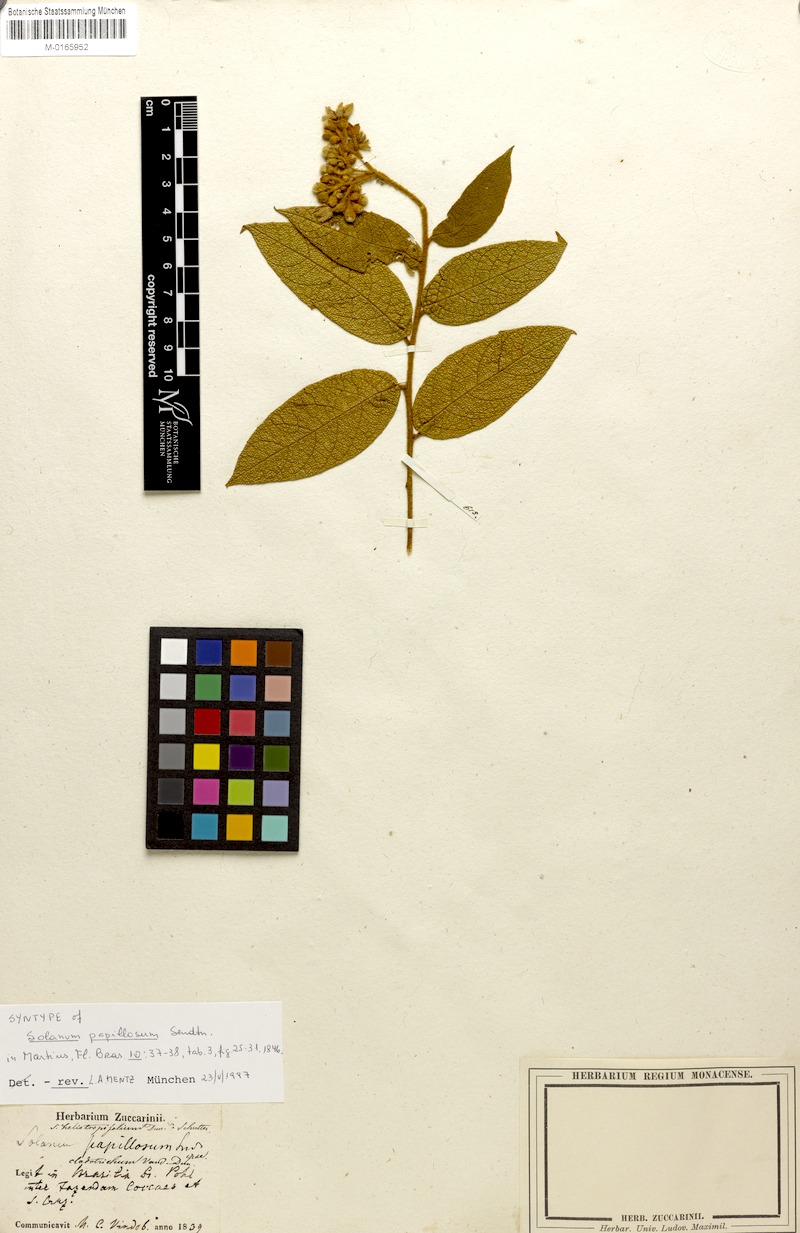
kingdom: Plantae
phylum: Tracheophyta
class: Magnoliopsida
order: Solanales
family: Solanaceae
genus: Solanum
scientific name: Solanum cladotrichum
